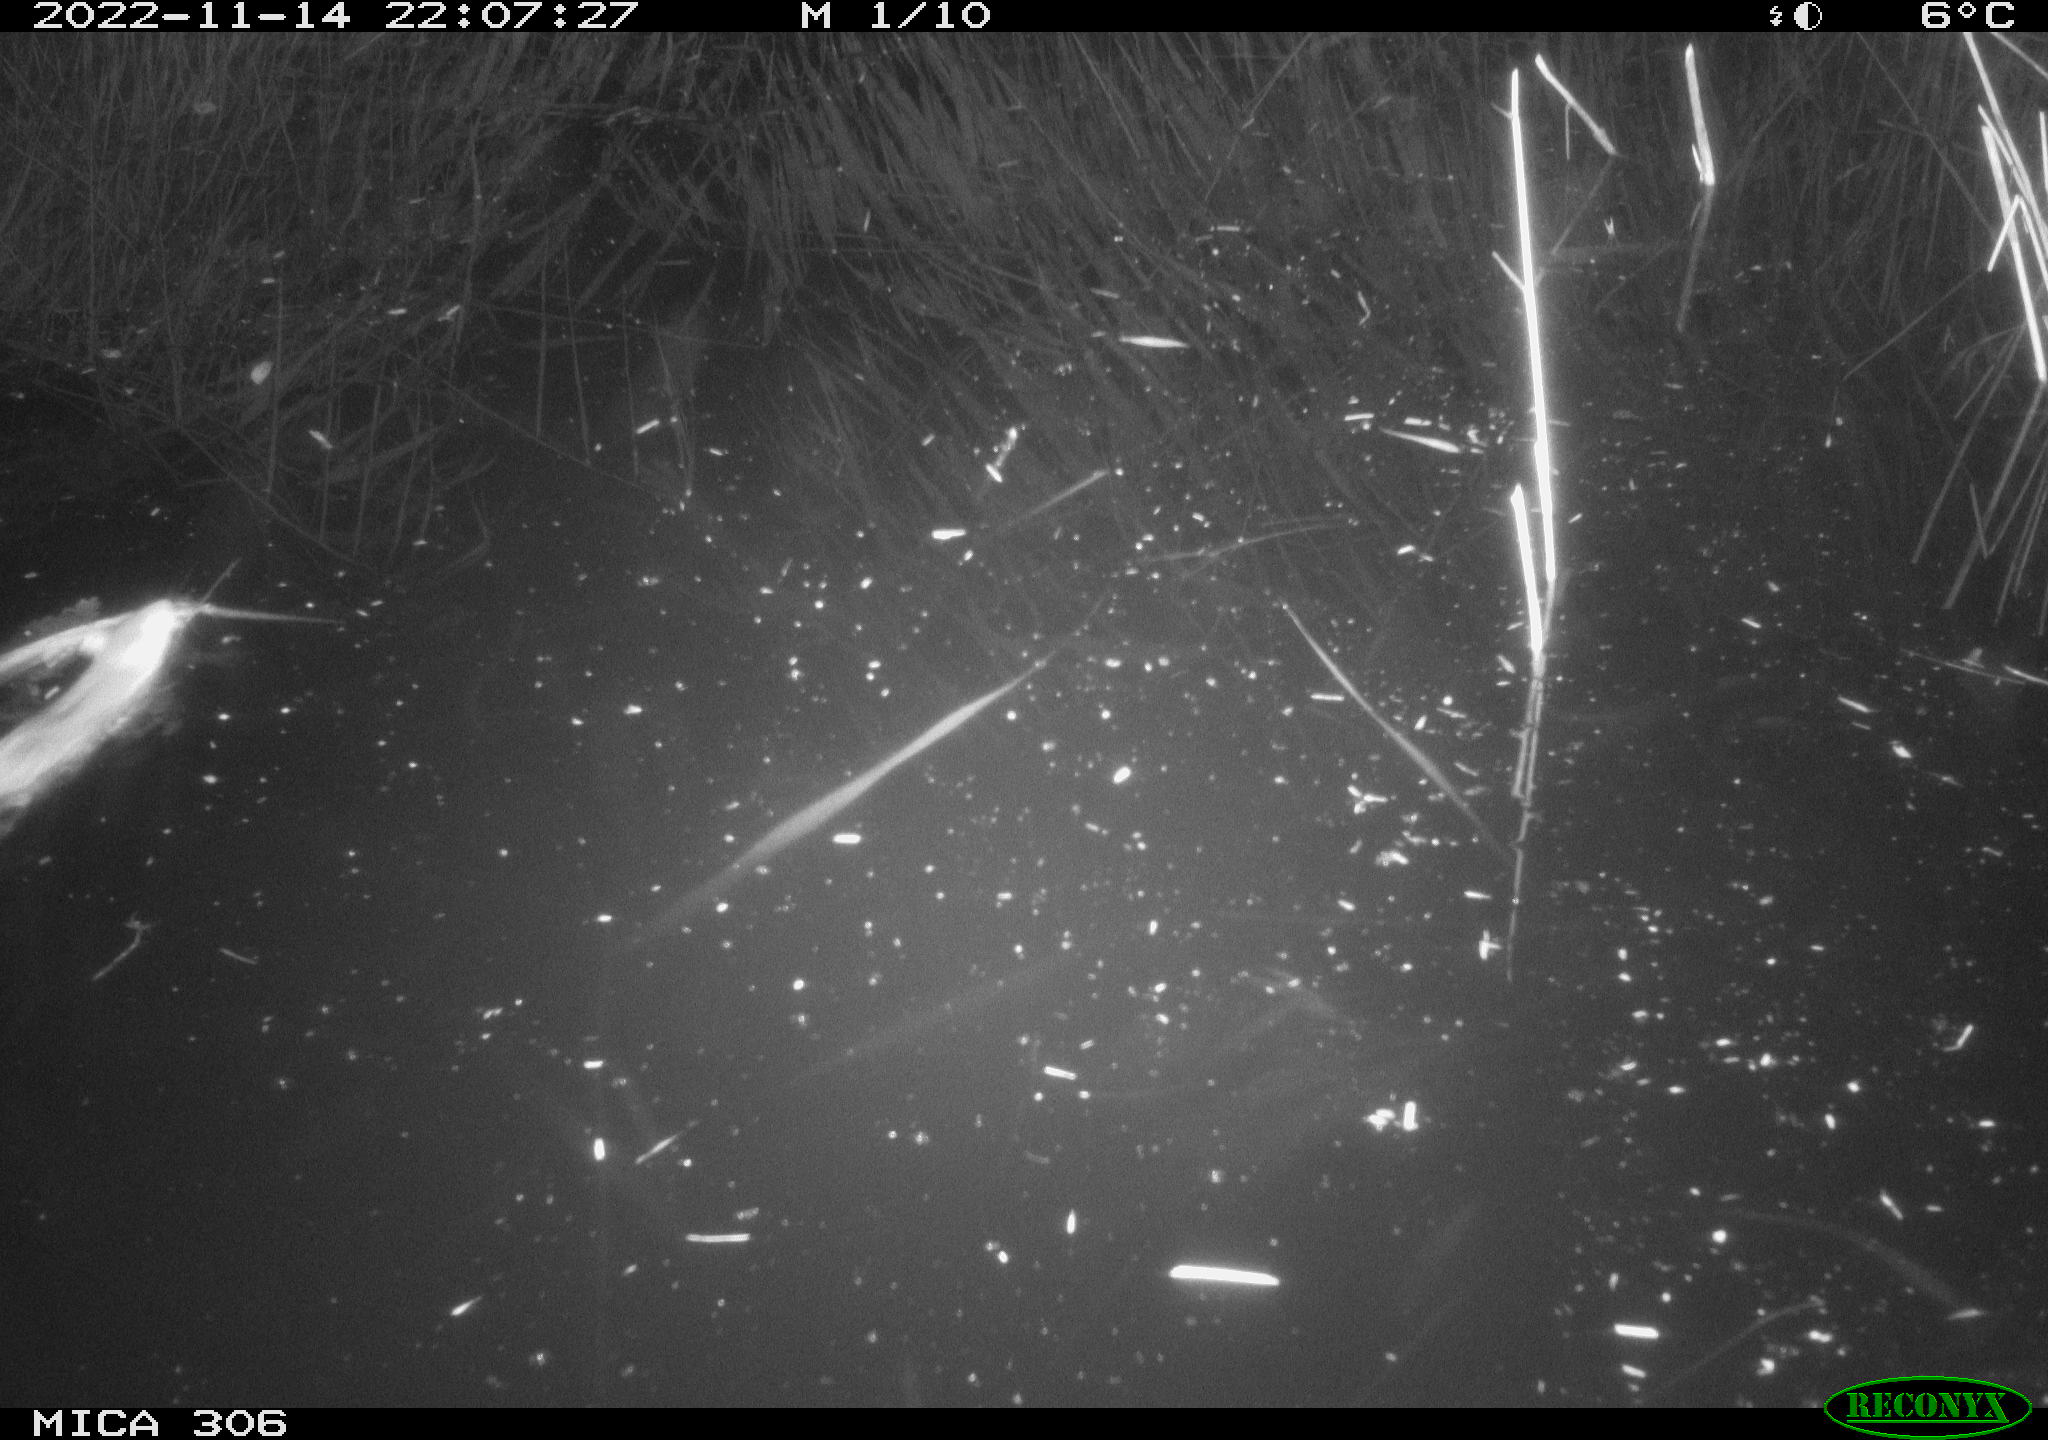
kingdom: Animalia
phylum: Chordata
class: Mammalia
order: Rodentia
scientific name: Rodentia
